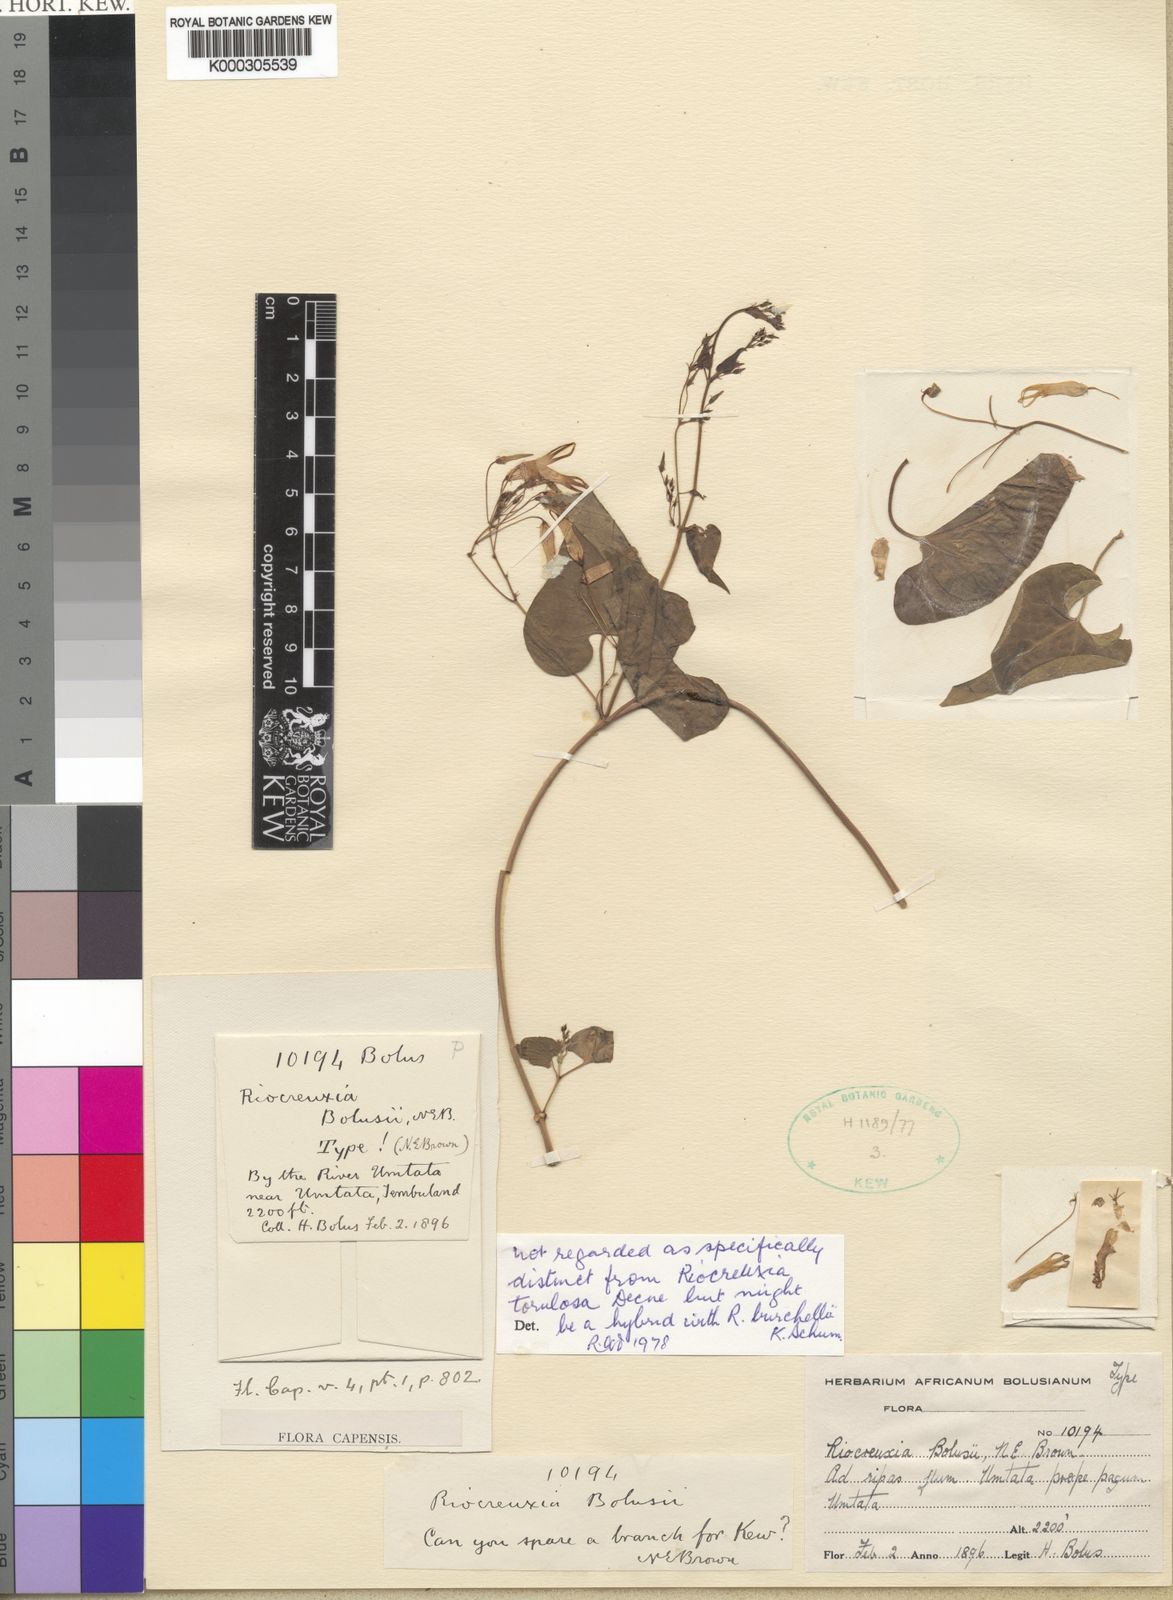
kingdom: Plantae
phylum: Tracheophyta
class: Magnoliopsida
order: Gentianales
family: Apocynaceae
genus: Riocreuxia
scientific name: Riocreuxia bolusii
